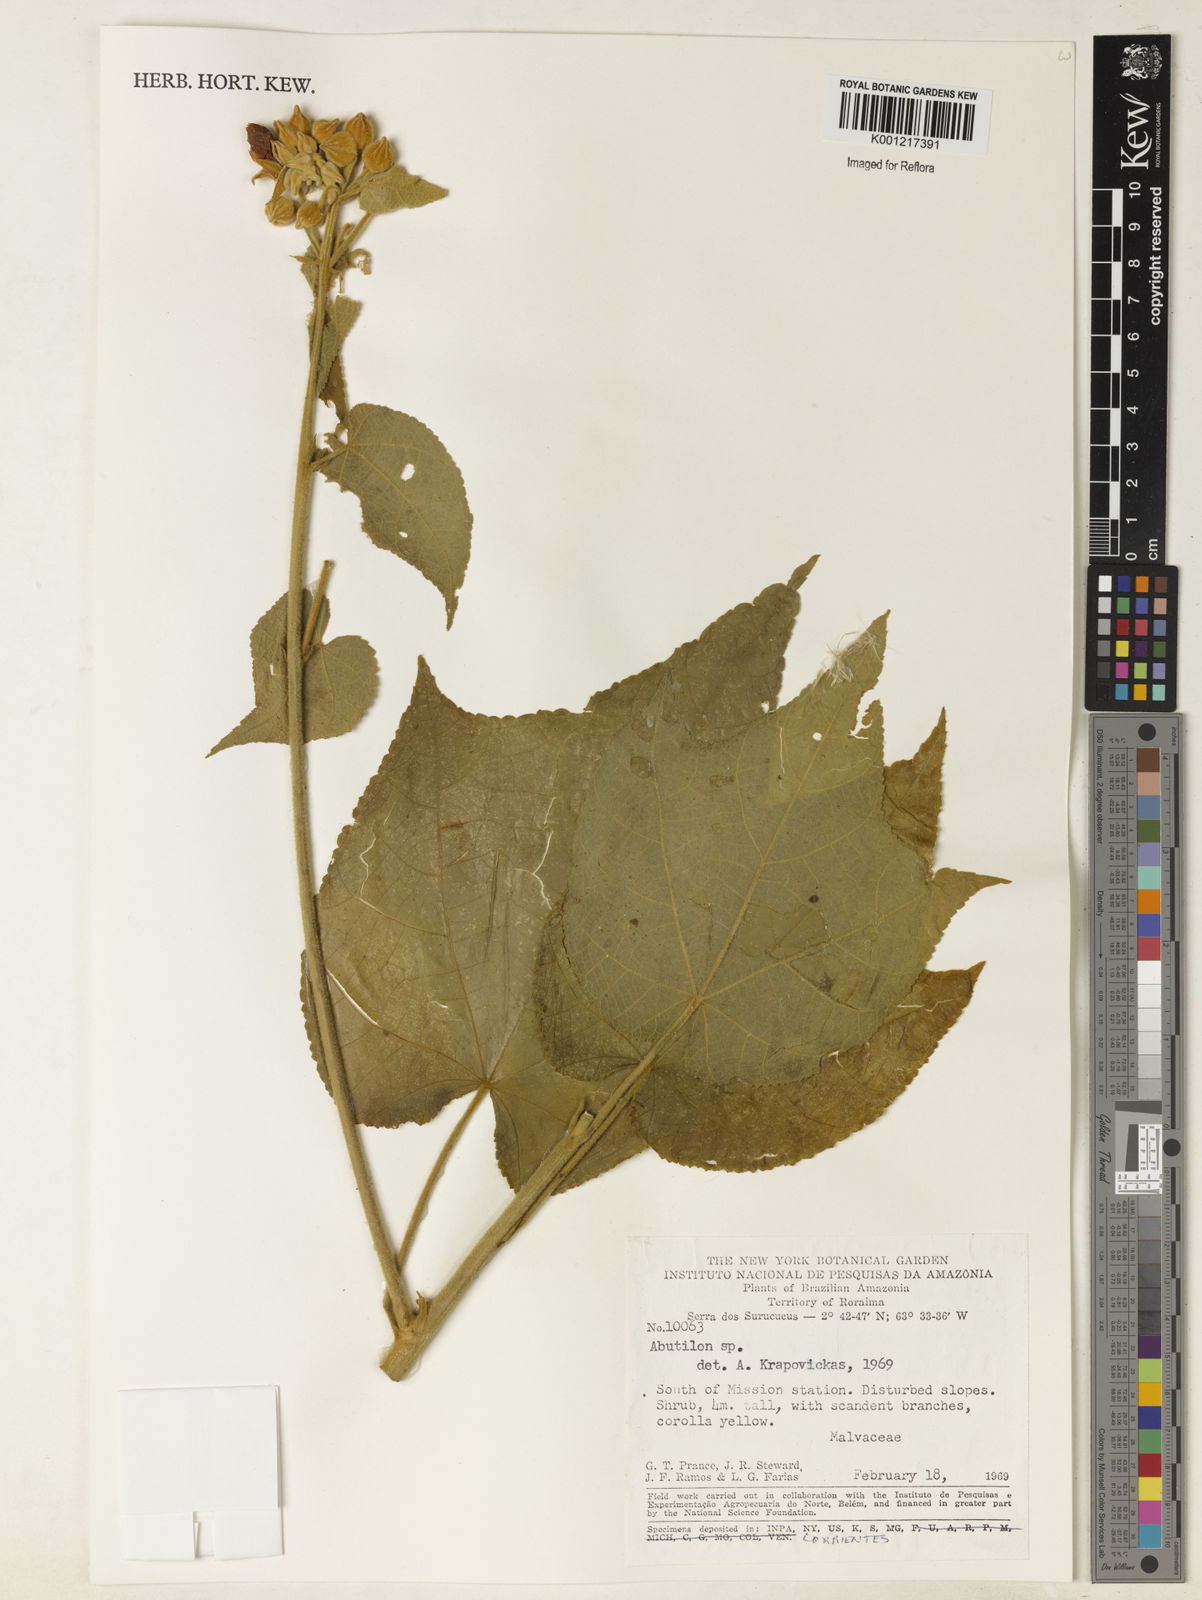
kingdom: Plantae
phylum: Tracheophyta
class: Magnoliopsida
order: Malvales
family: Malvaceae
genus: Abutilon
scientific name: Abutilon
